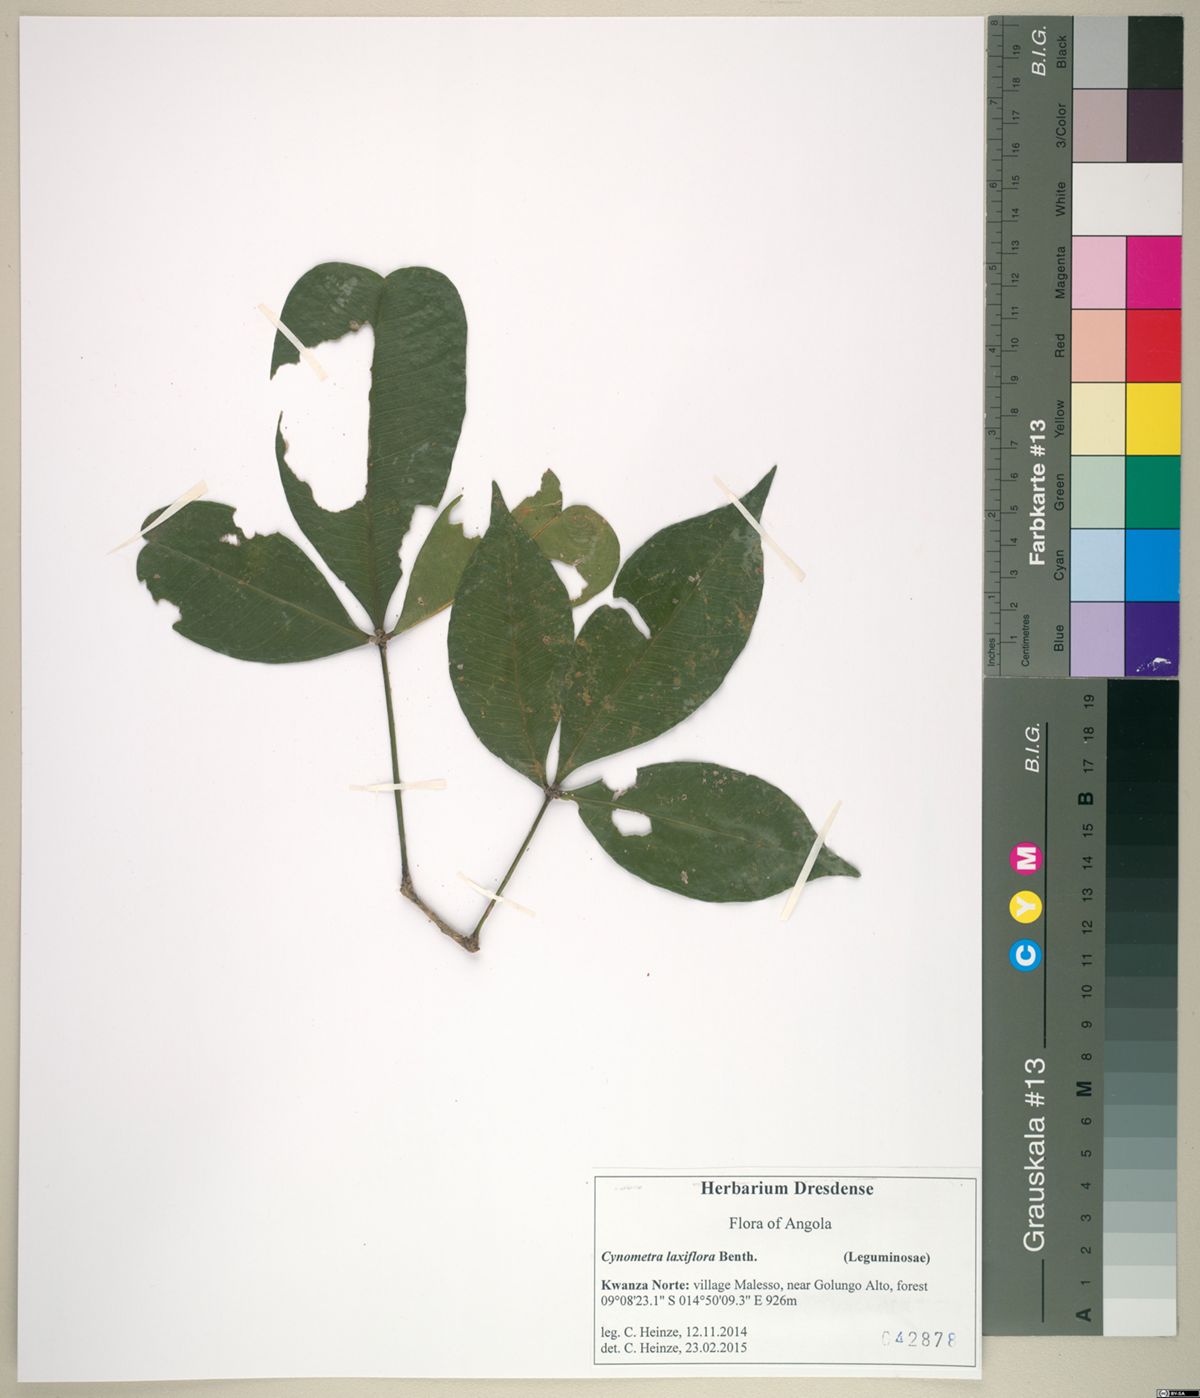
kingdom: Plantae
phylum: Tracheophyta
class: Magnoliopsida
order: Fabales
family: Fabaceae
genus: Annea
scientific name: Annea laxiflora
